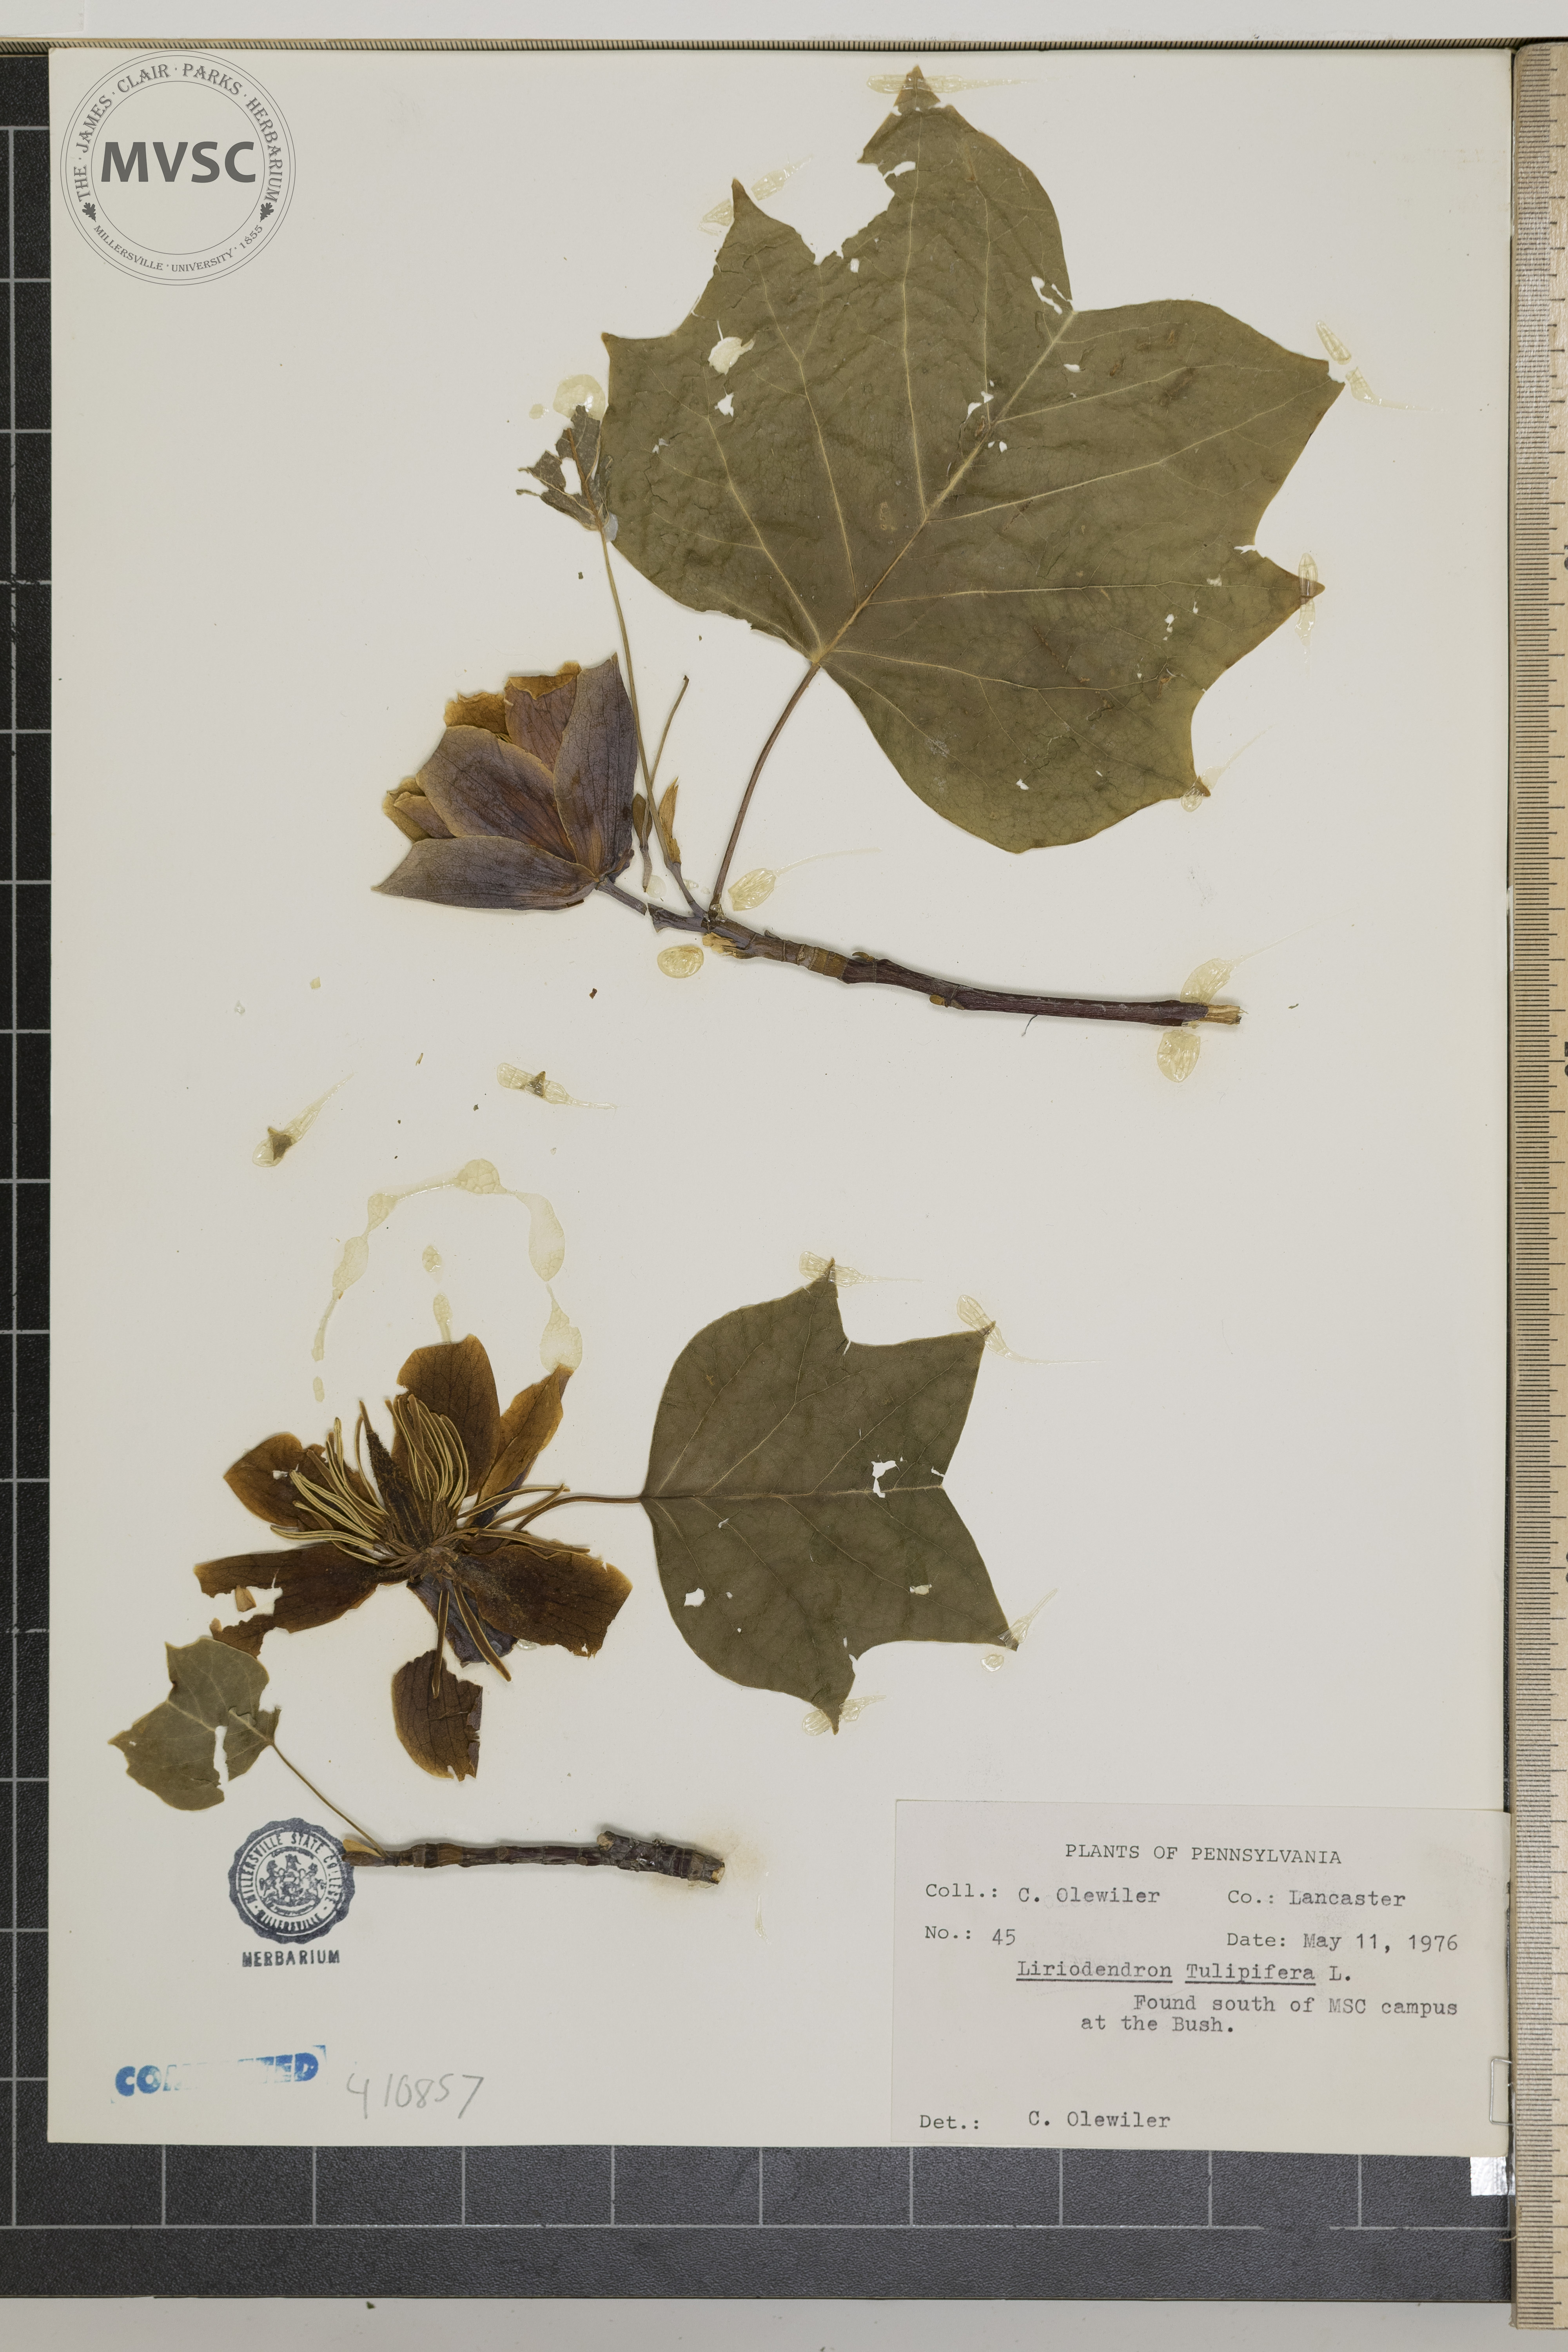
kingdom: Plantae
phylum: Tracheophyta
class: Magnoliopsida
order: Magnoliales
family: Magnoliaceae
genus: Liriodendron
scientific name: Liriodendron tulipifera
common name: Tulip tree
